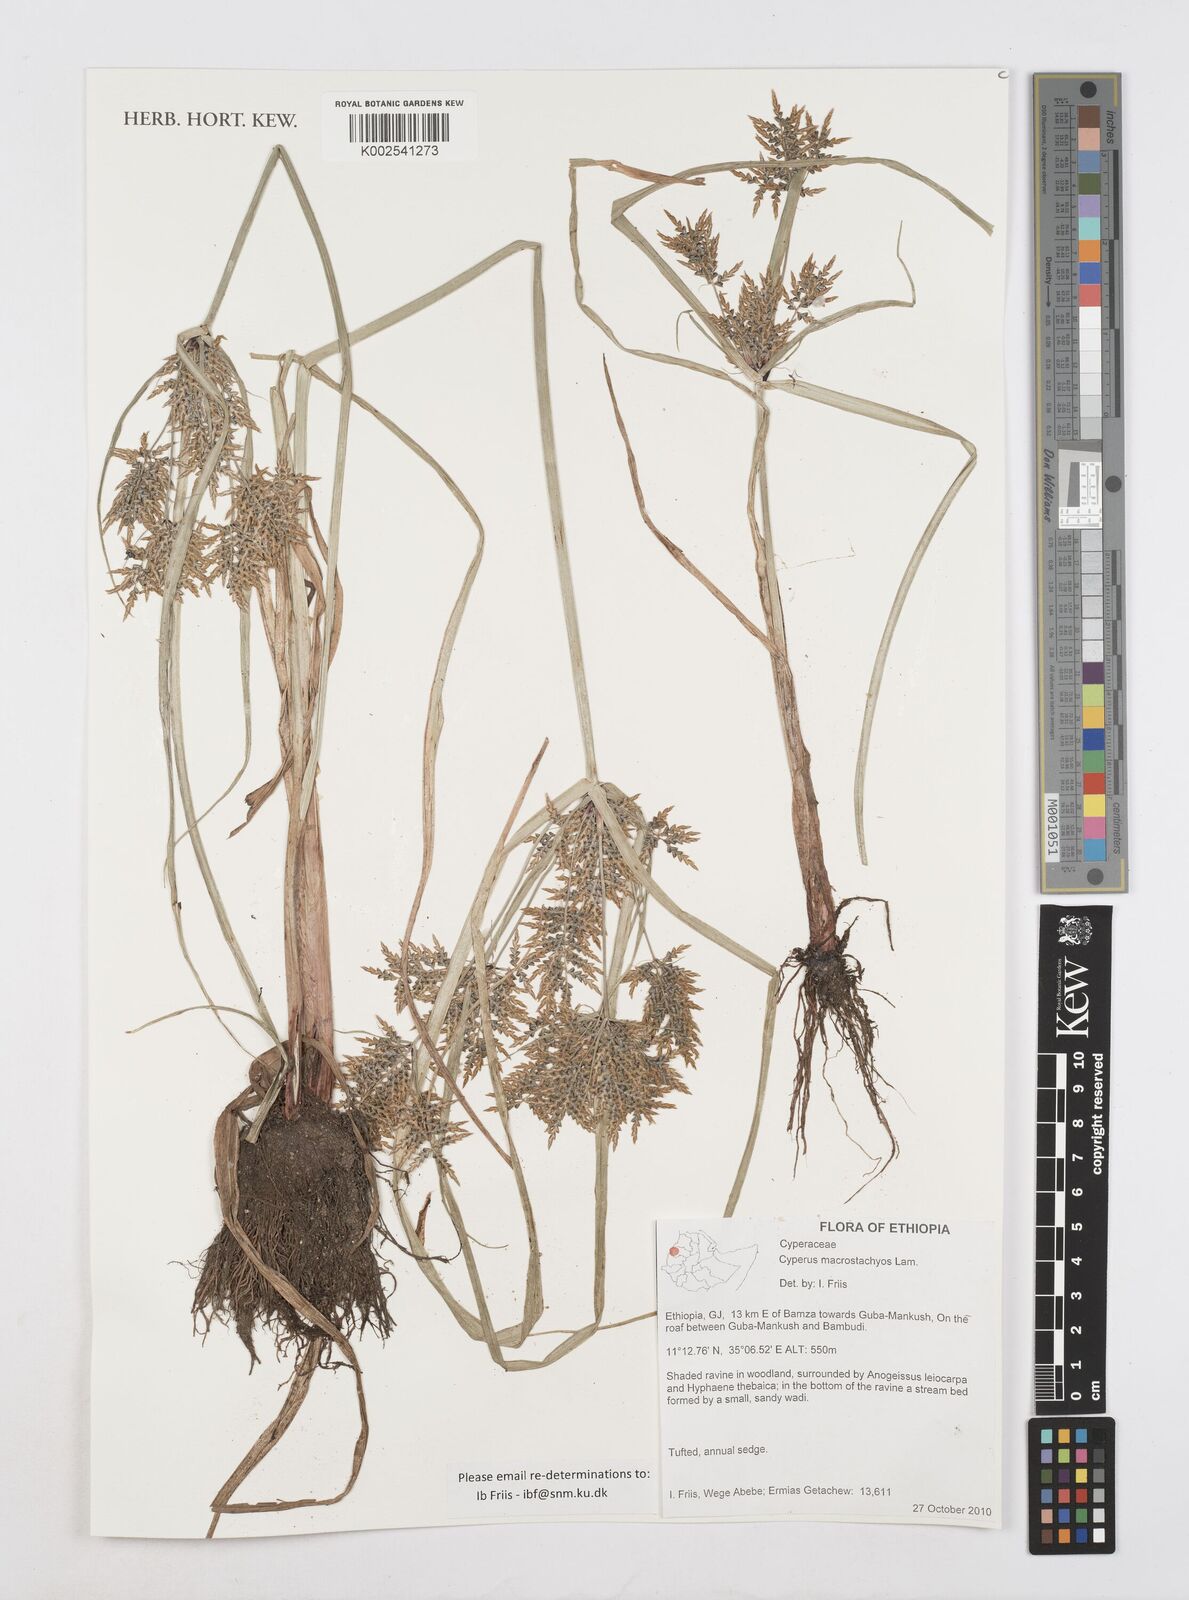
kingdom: Plantae
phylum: Tracheophyta
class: Liliopsida
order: Poales
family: Cyperaceae
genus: Cyperus
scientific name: Cyperus macrostachyos
